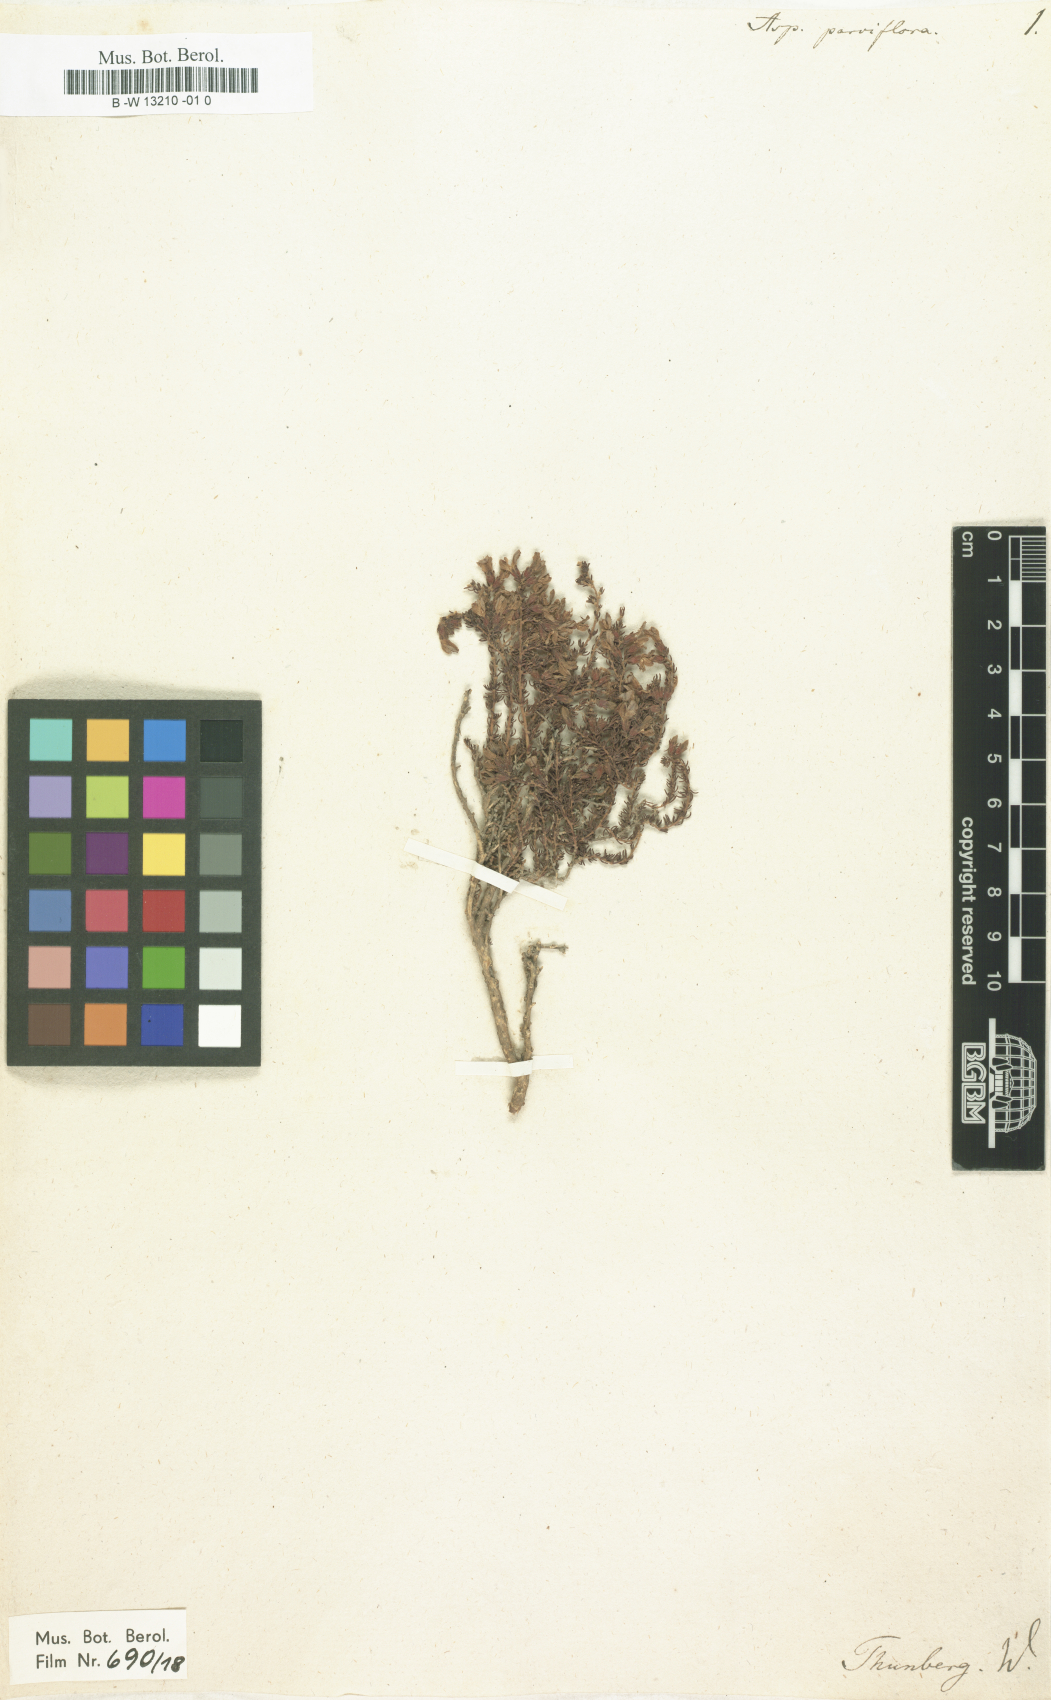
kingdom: Plantae
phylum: Tracheophyta
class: Magnoliopsida
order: Fabales
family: Fabaceae
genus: Aspalathus
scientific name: Aspalathus parviflora
